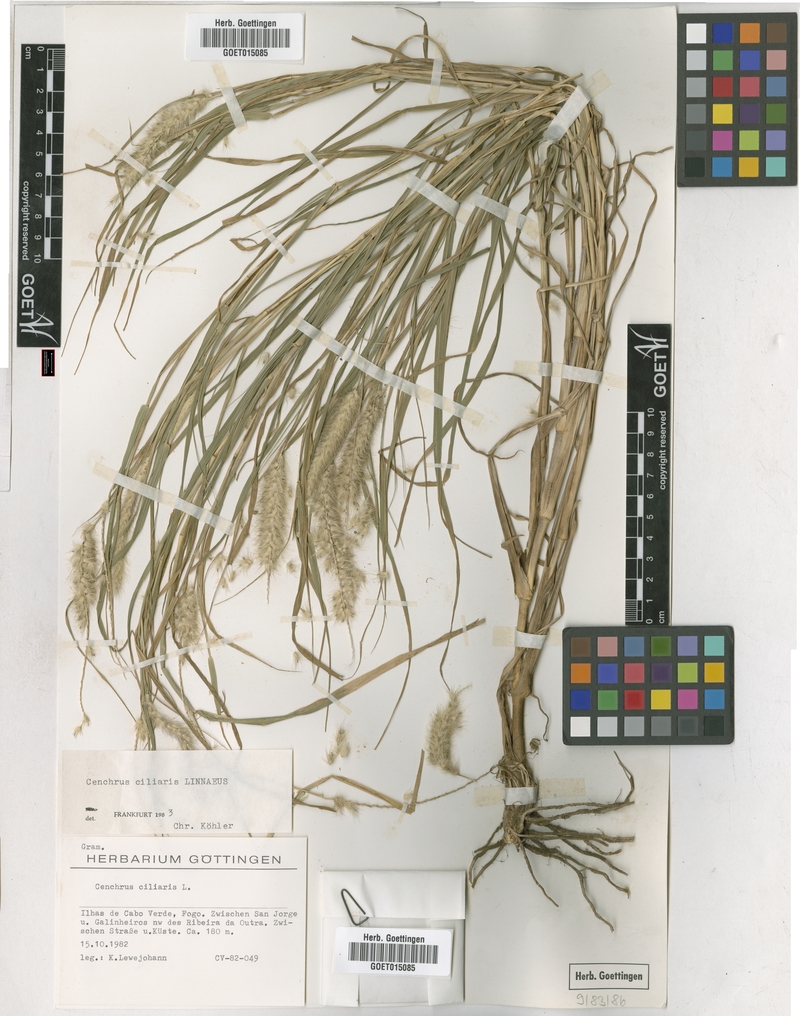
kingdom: Plantae
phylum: Tracheophyta
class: Liliopsida
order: Poales
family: Poaceae
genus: Cenchrus
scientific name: Cenchrus ciliaris
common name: Buffelgrass
